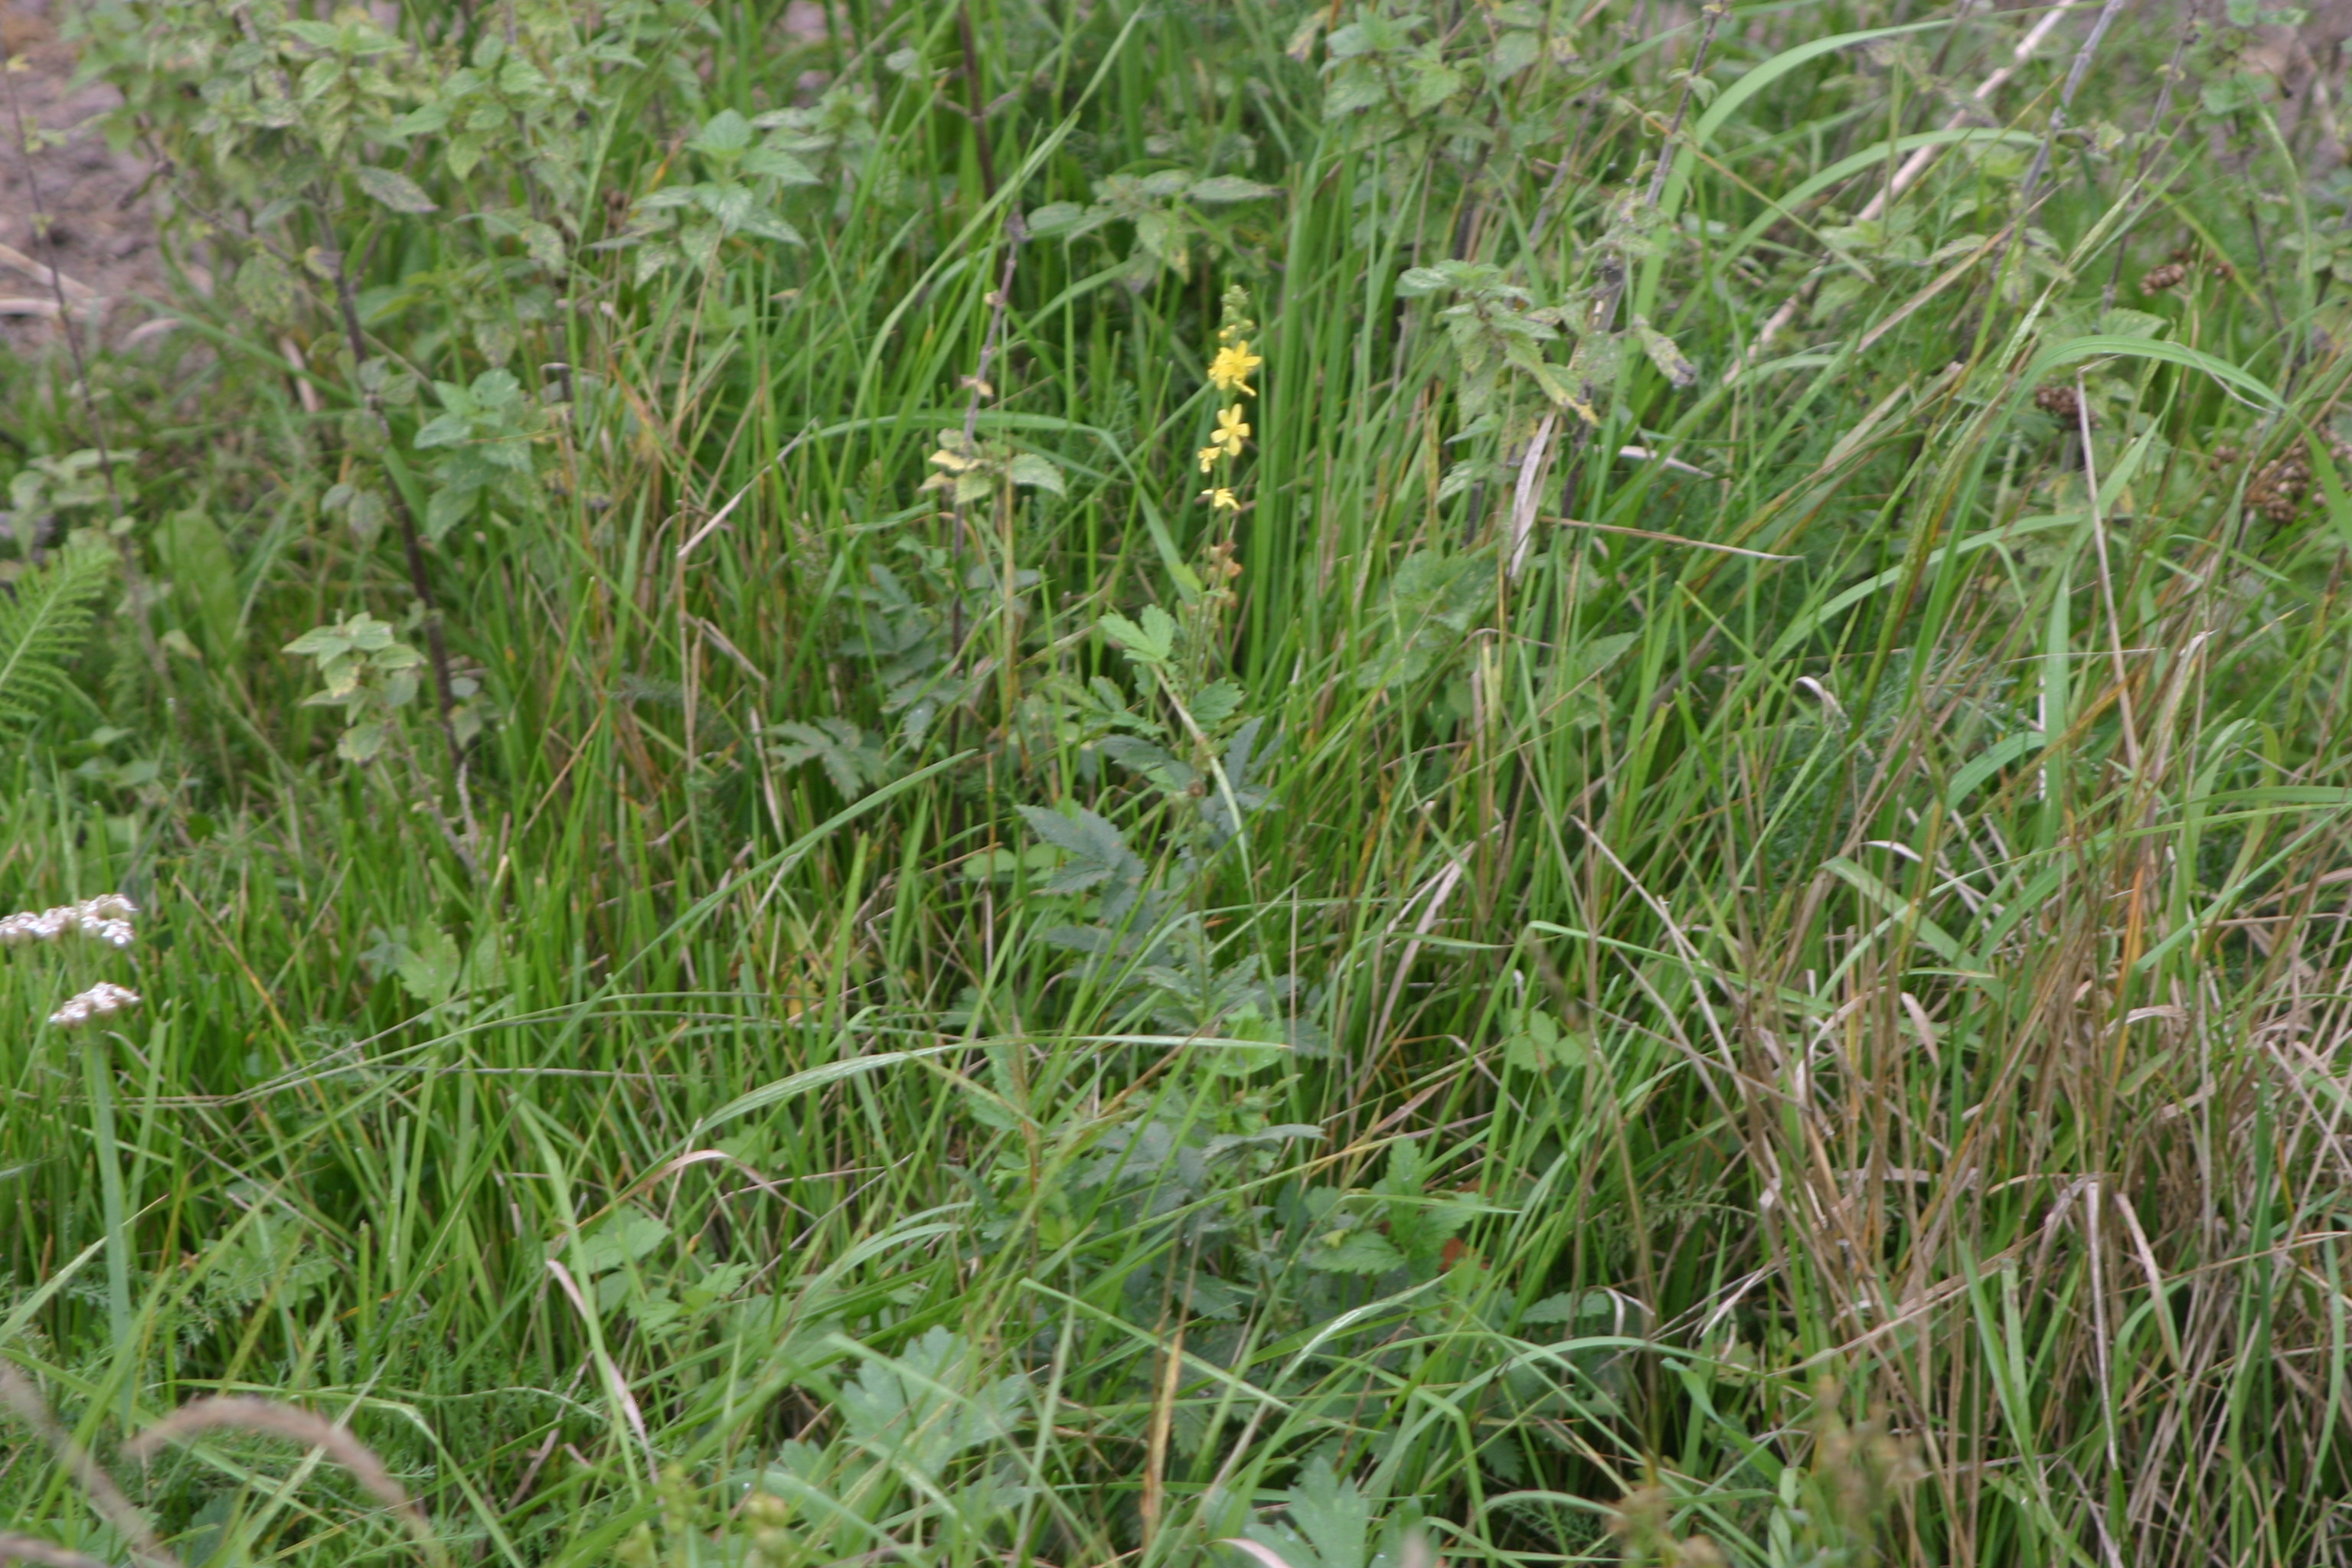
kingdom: Plantae
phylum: Tracheophyta
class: Magnoliopsida
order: Rosales
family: Rosaceae
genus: Agrimonia
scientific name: Agrimonia eupatoria
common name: Agrimony
